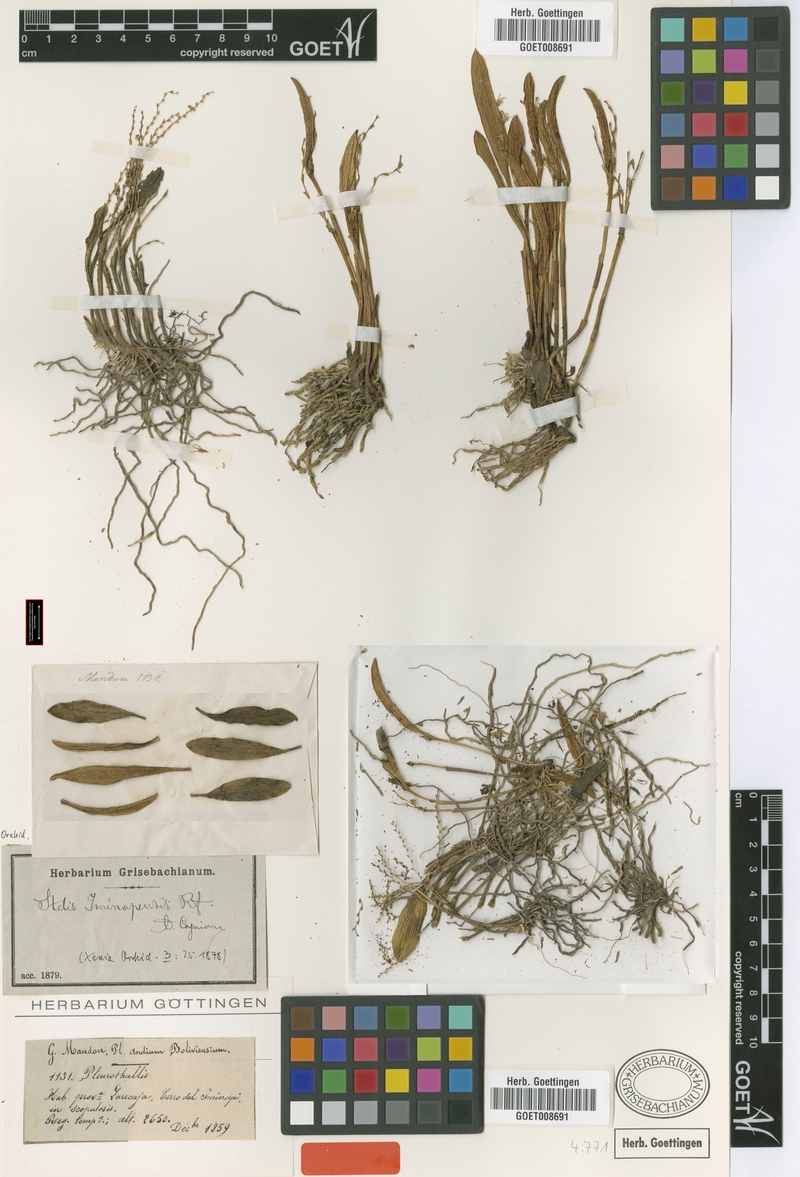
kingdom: Plantae
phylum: Tracheophyta
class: Liliopsida
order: Asparagales
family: Orchidaceae
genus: Stelis
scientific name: Stelis euspatha
